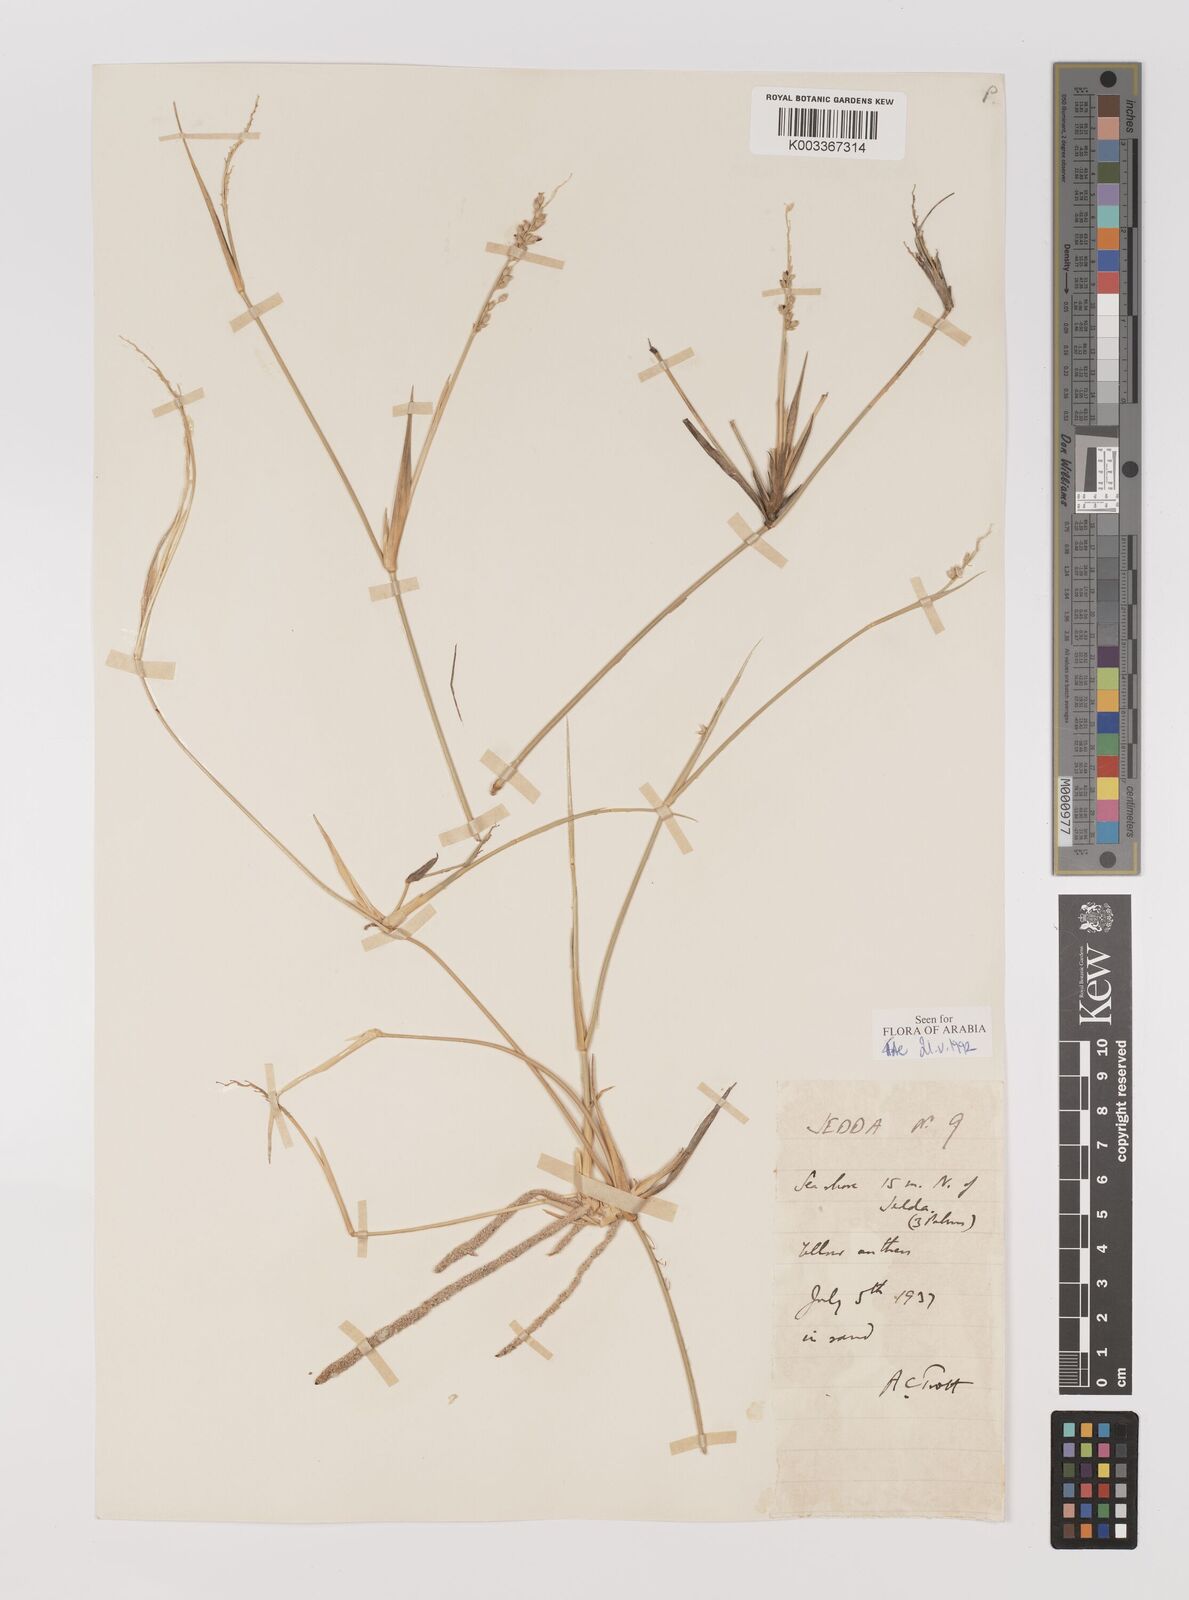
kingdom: Plantae
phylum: Tracheophyta
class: Liliopsida
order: Poales
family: Poaceae
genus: Panicum
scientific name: Panicum turgidum
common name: Desert grass
